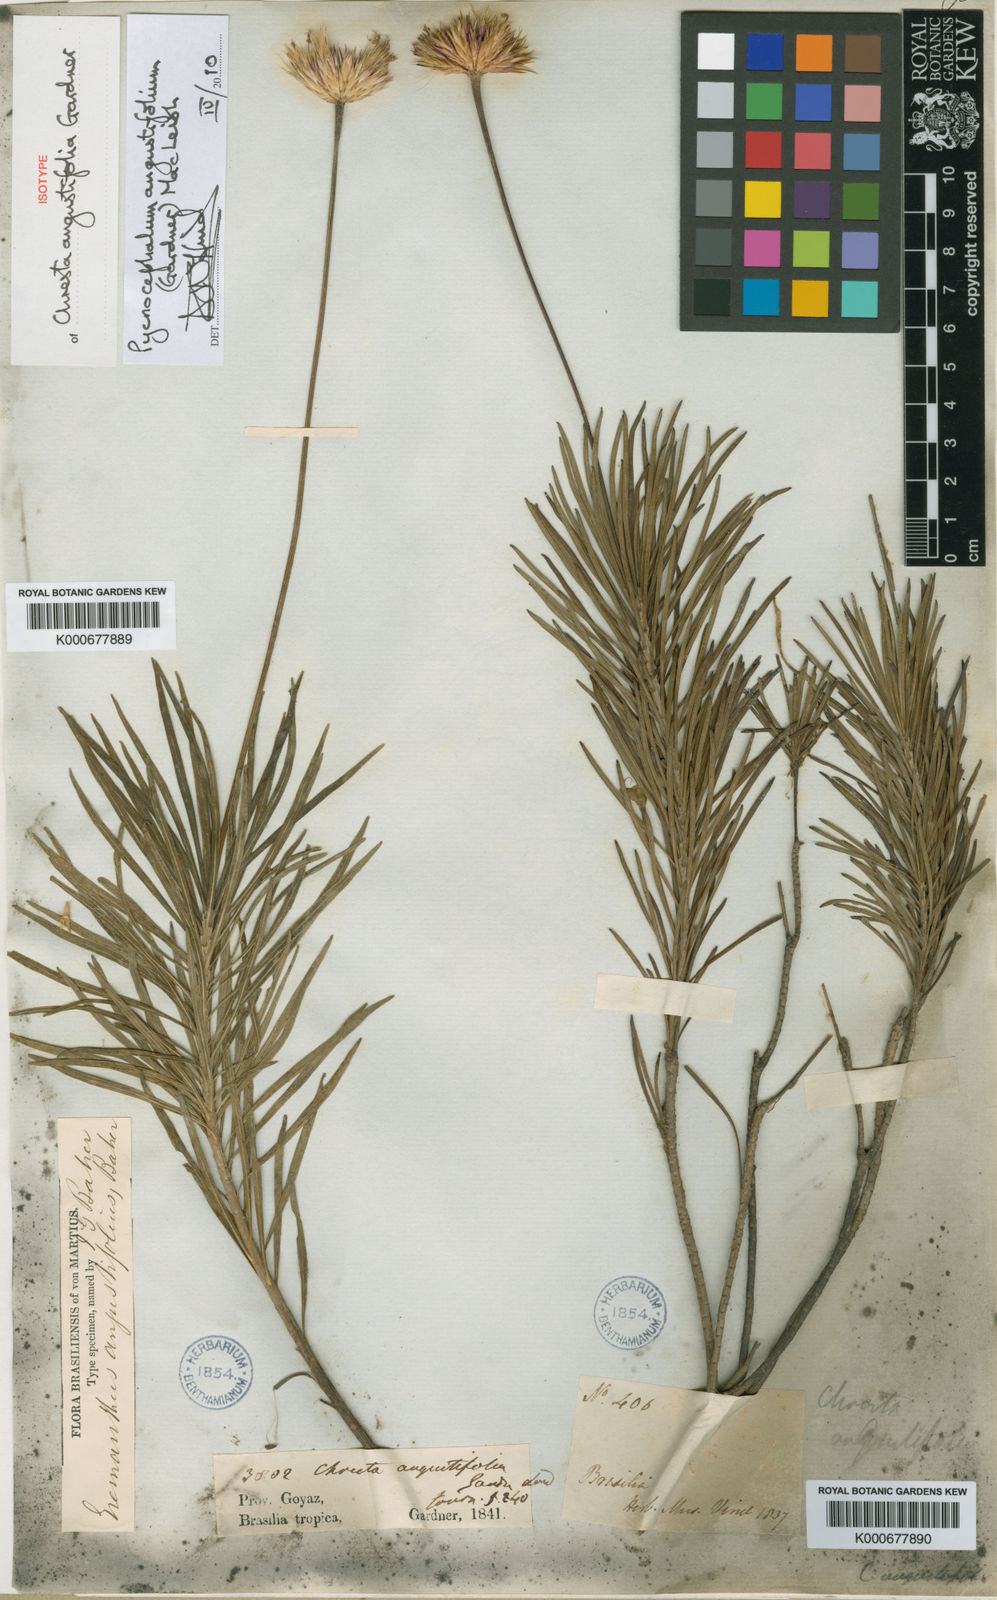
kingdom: Plantae
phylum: Tracheophyta
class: Magnoliopsida
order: Asterales
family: Asteraceae
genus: Chresta
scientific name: Chresta angustifolia
